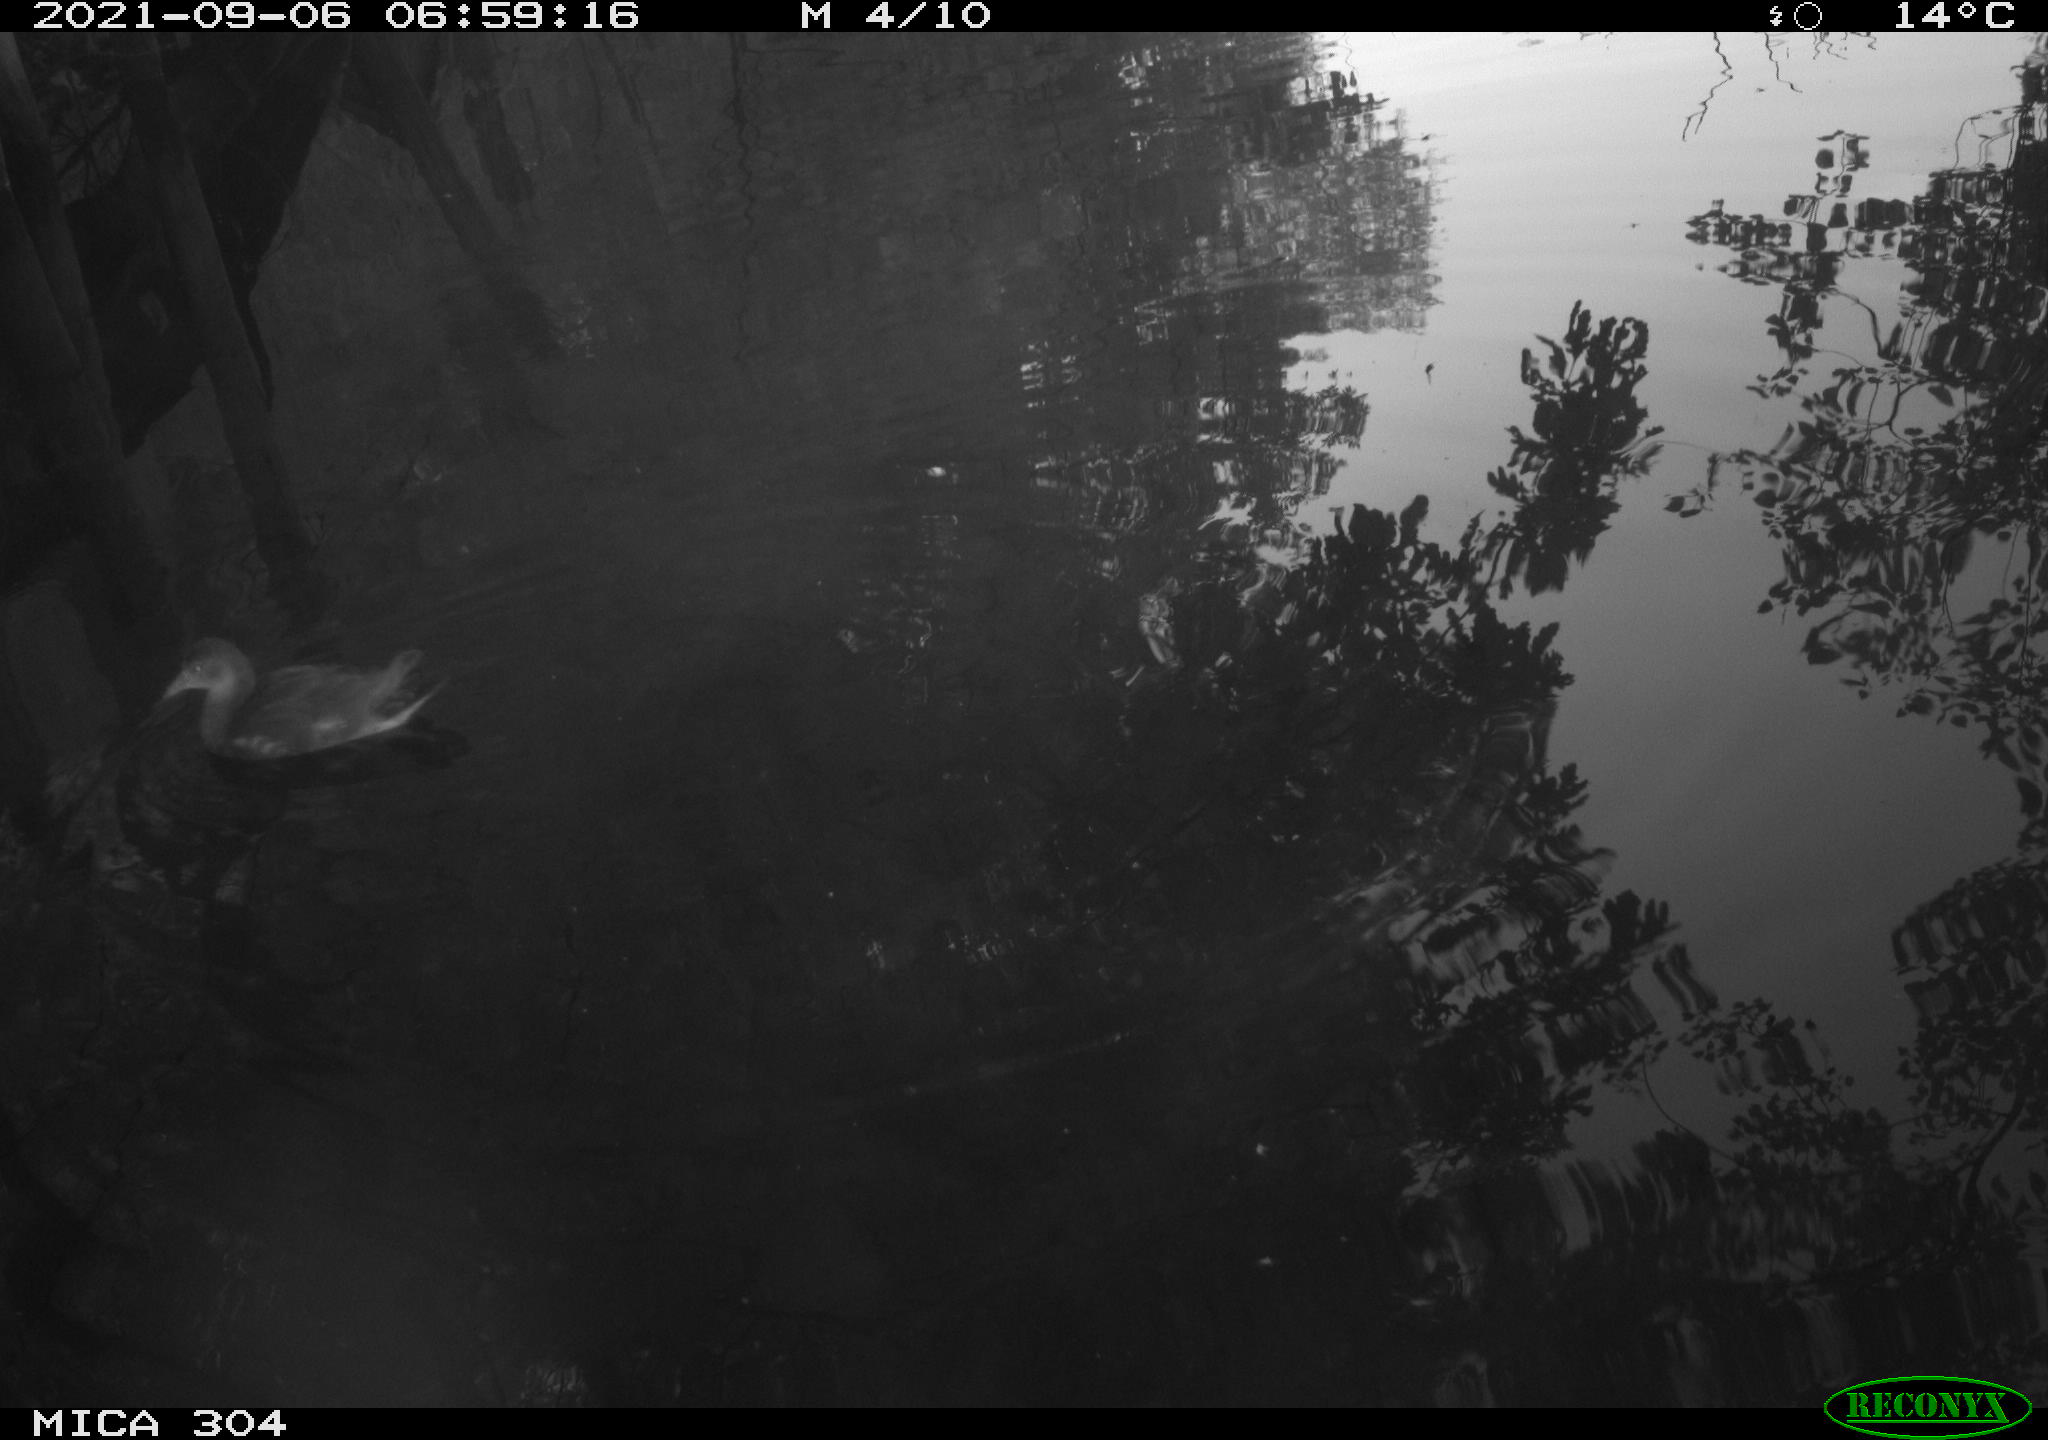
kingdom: Animalia
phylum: Chordata
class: Aves
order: Gruiformes
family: Rallidae
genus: Gallinula
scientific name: Gallinula chloropus
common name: Common moorhen
